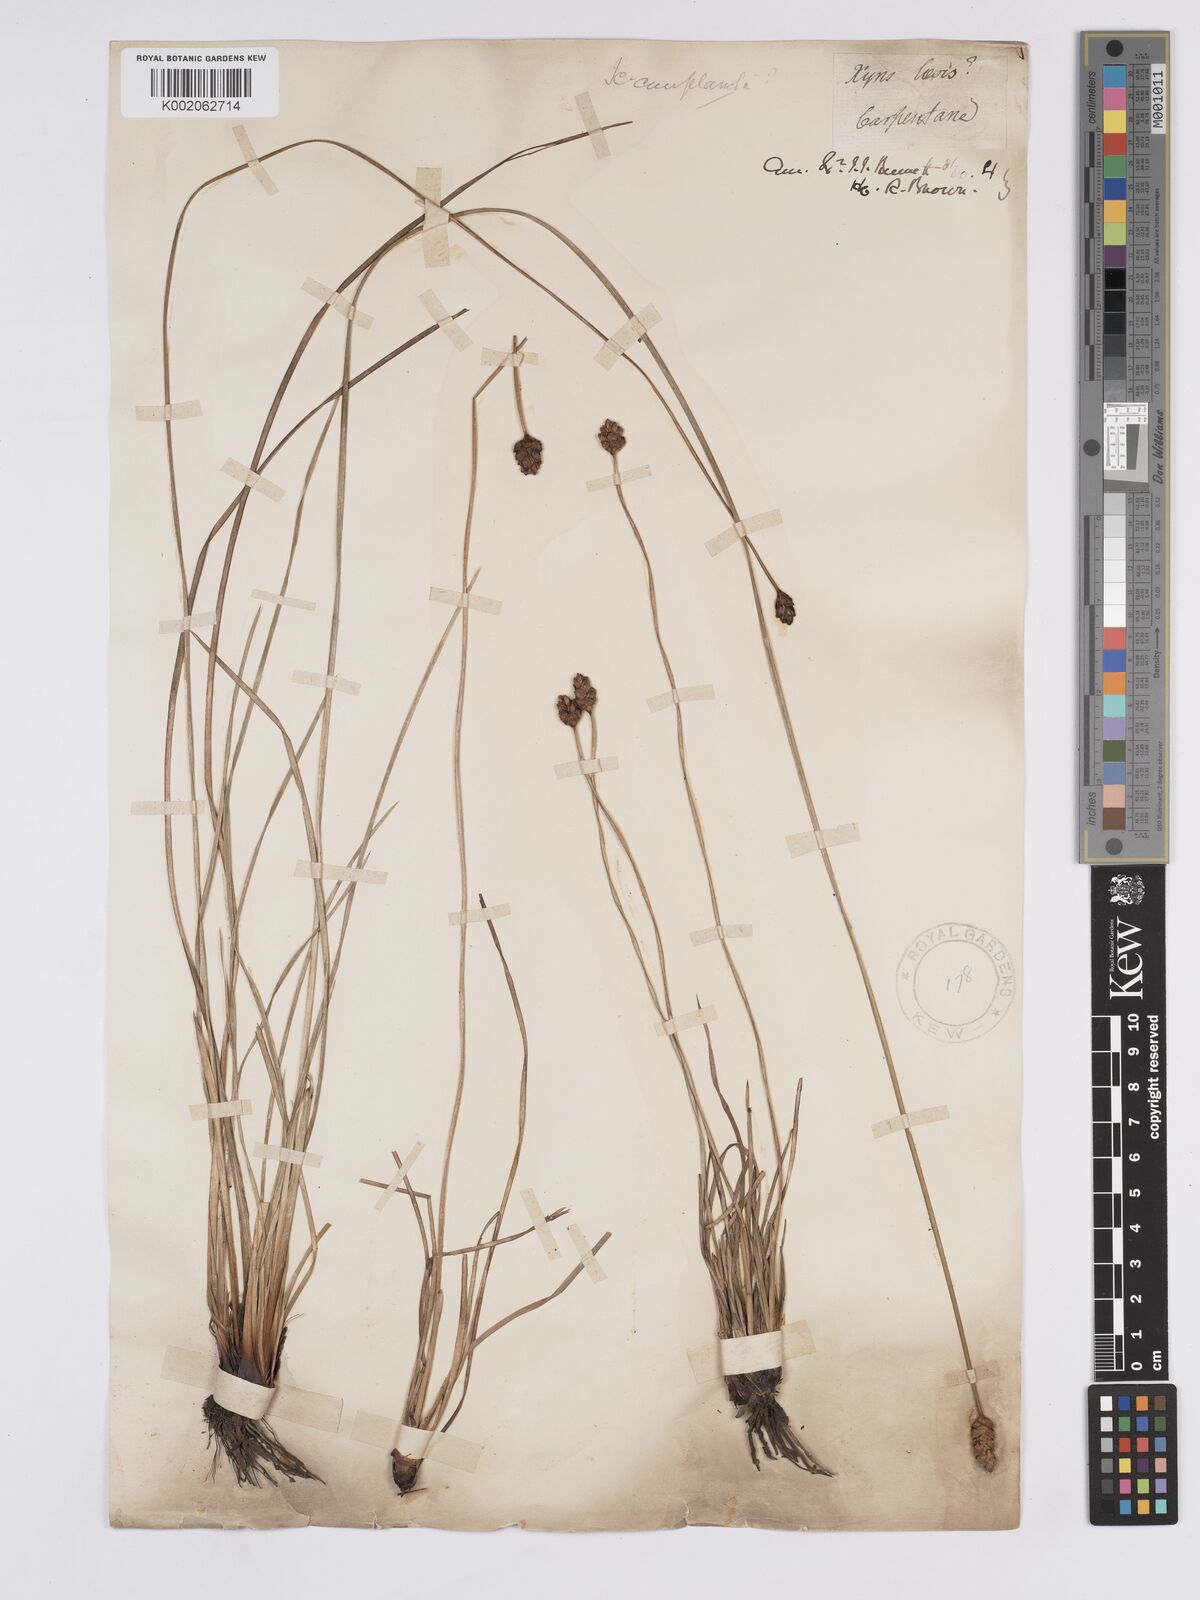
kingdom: Plantae
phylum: Tracheophyta
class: Liliopsida
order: Poales
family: Xyridaceae
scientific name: Xyridaceae
